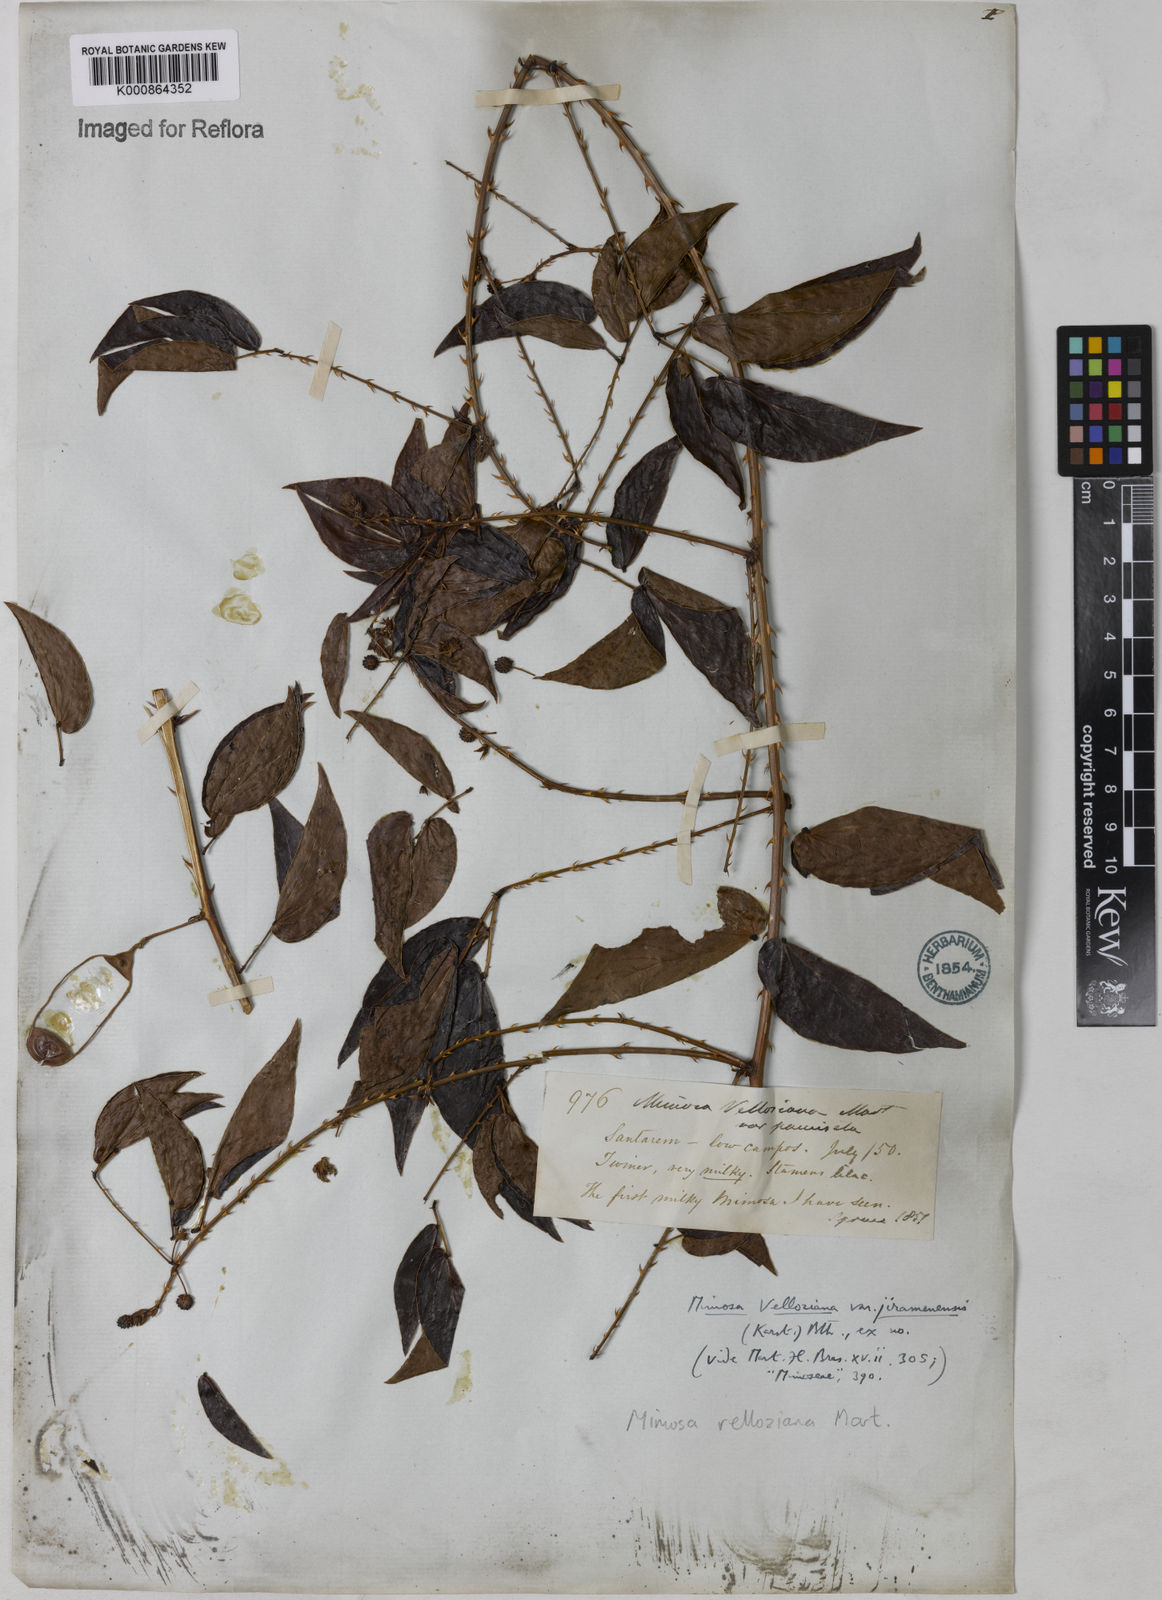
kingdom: Plantae
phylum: Tracheophyta
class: Magnoliopsida
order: Fabales
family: Fabaceae
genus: Mimosa
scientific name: Mimosa velloziana
